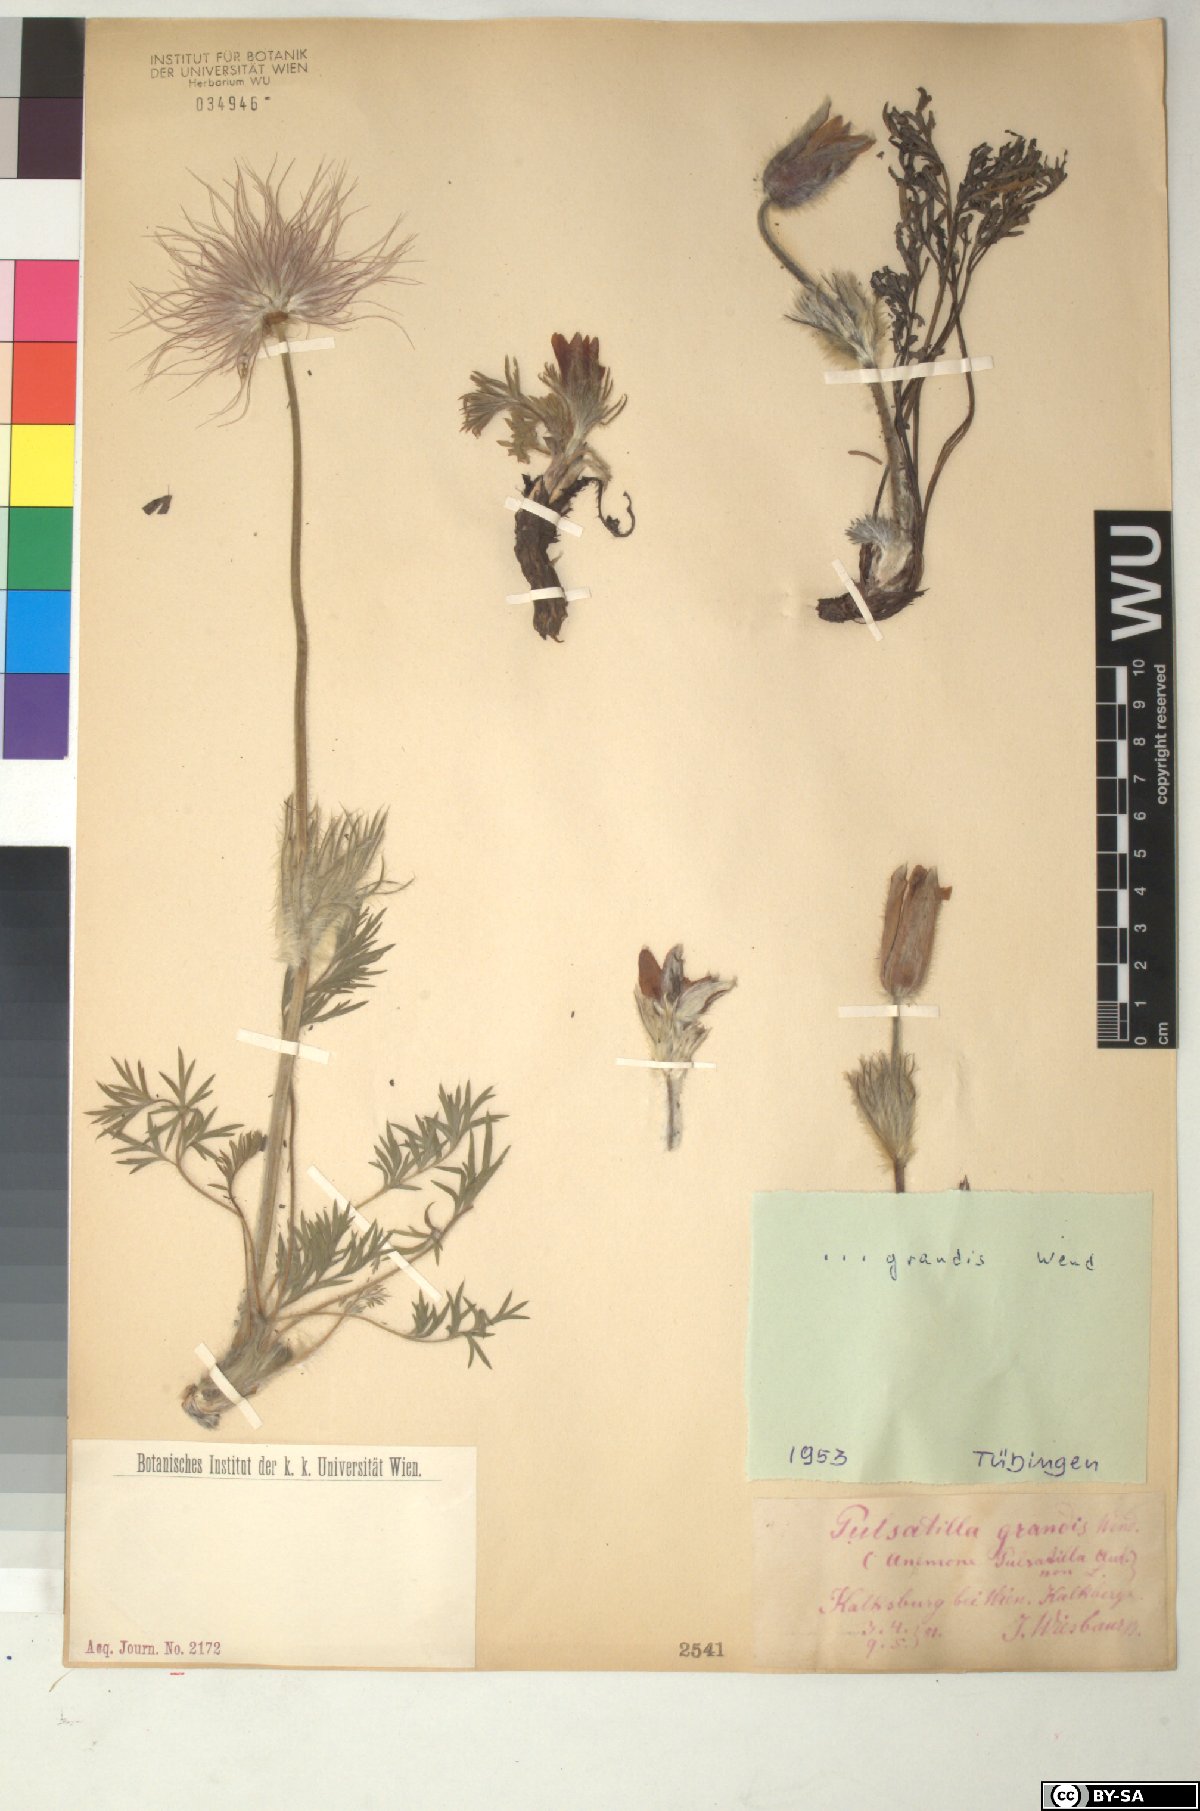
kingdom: Plantae
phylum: Tracheophyta
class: Magnoliopsida
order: Ranunculales
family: Ranunculaceae
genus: Pulsatilla
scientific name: Pulsatilla grandis
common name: Greater pasque flower
